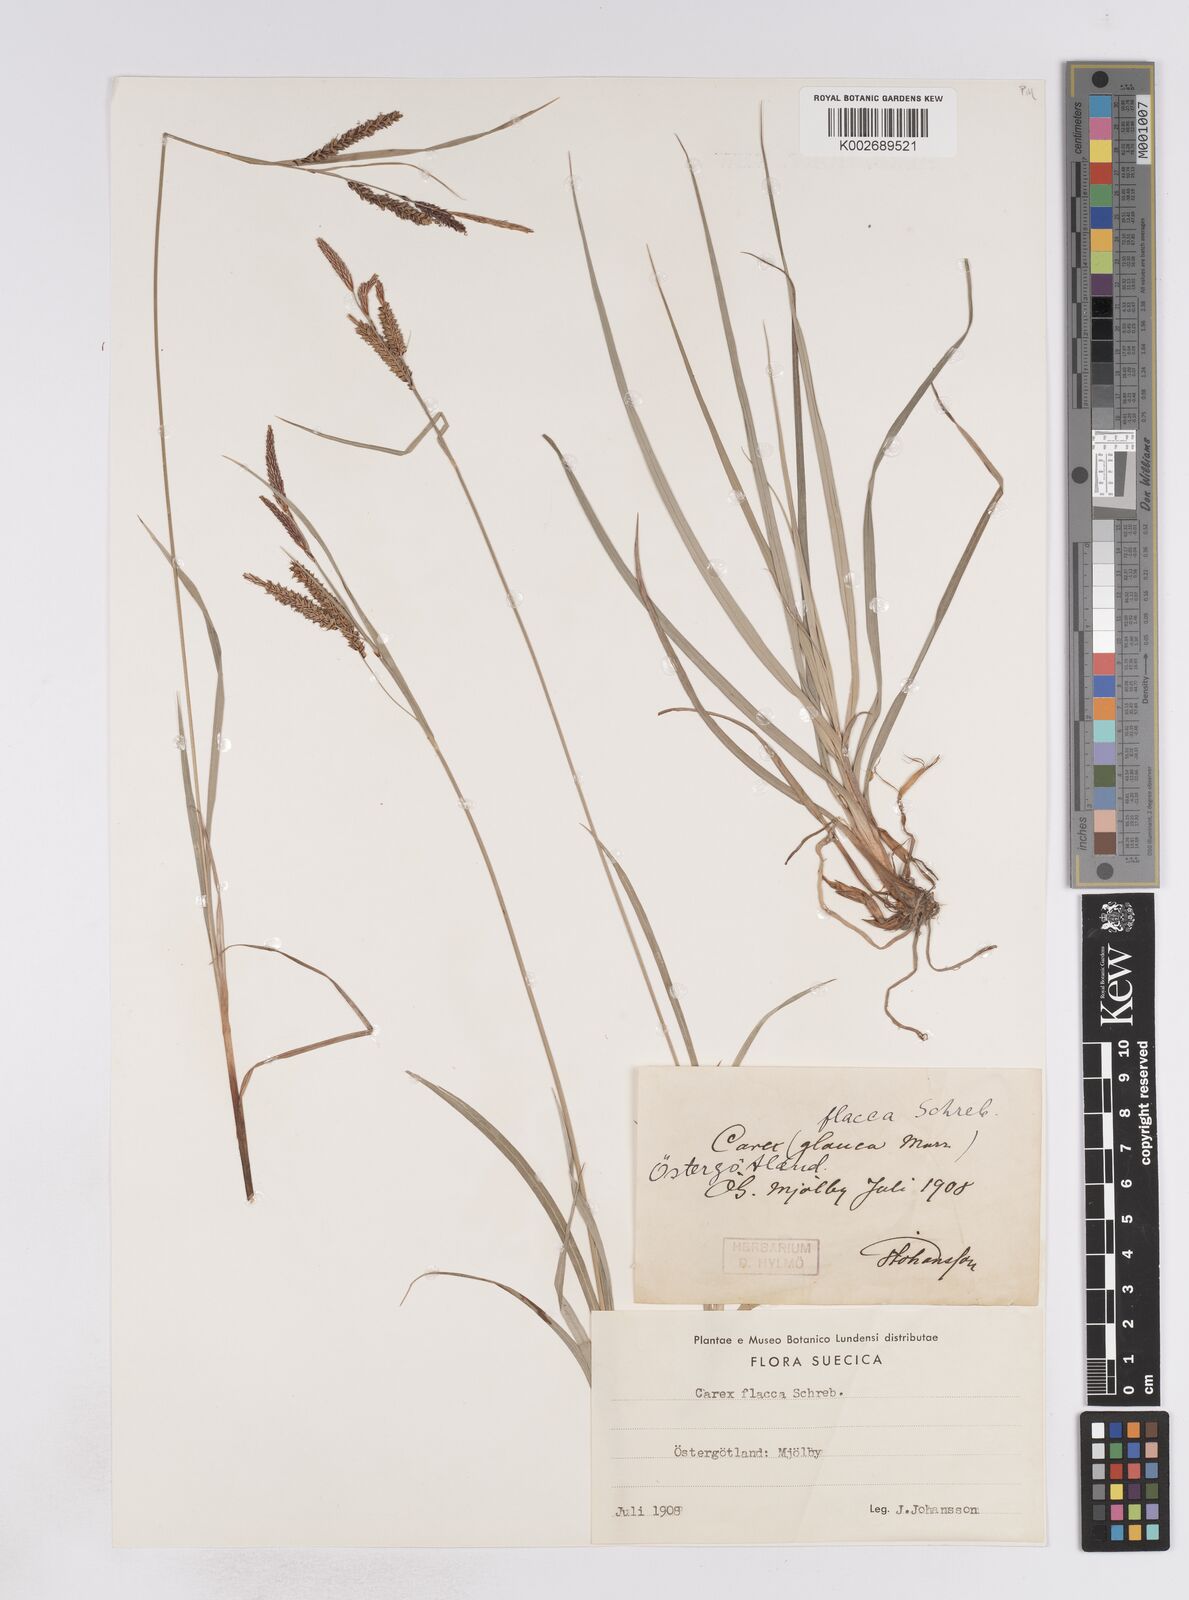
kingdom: Plantae
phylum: Tracheophyta
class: Liliopsida
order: Poales
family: Cyperaceae
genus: Carex
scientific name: Carex flacca
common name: Glaucous sedge
